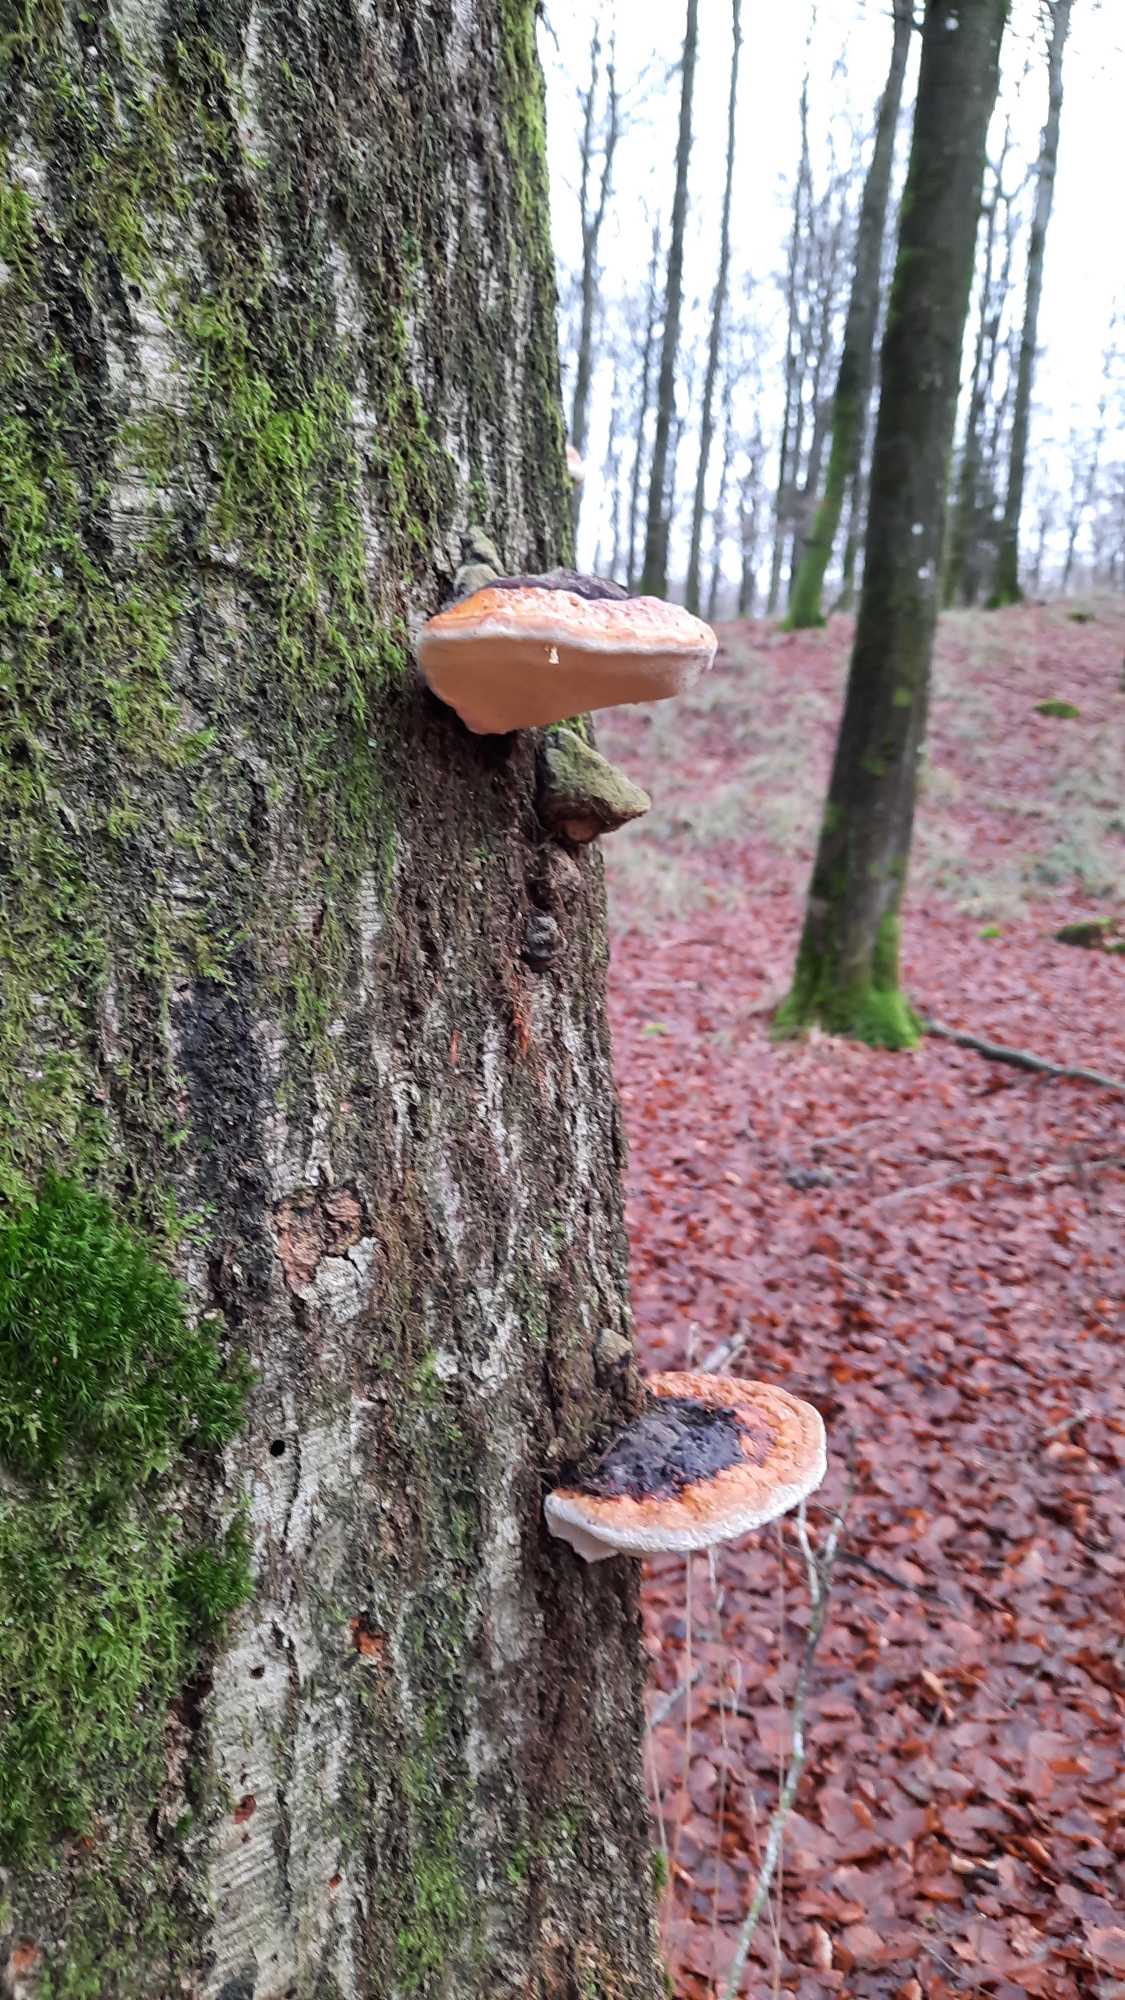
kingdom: Fungi
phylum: Basidiomycota
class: Agaricomycetes
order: Polyporales
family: Fomitopsidaceae
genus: Fomitopsis
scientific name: Fomitopsis pinicola
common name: Randbæltet hovporesvamp
